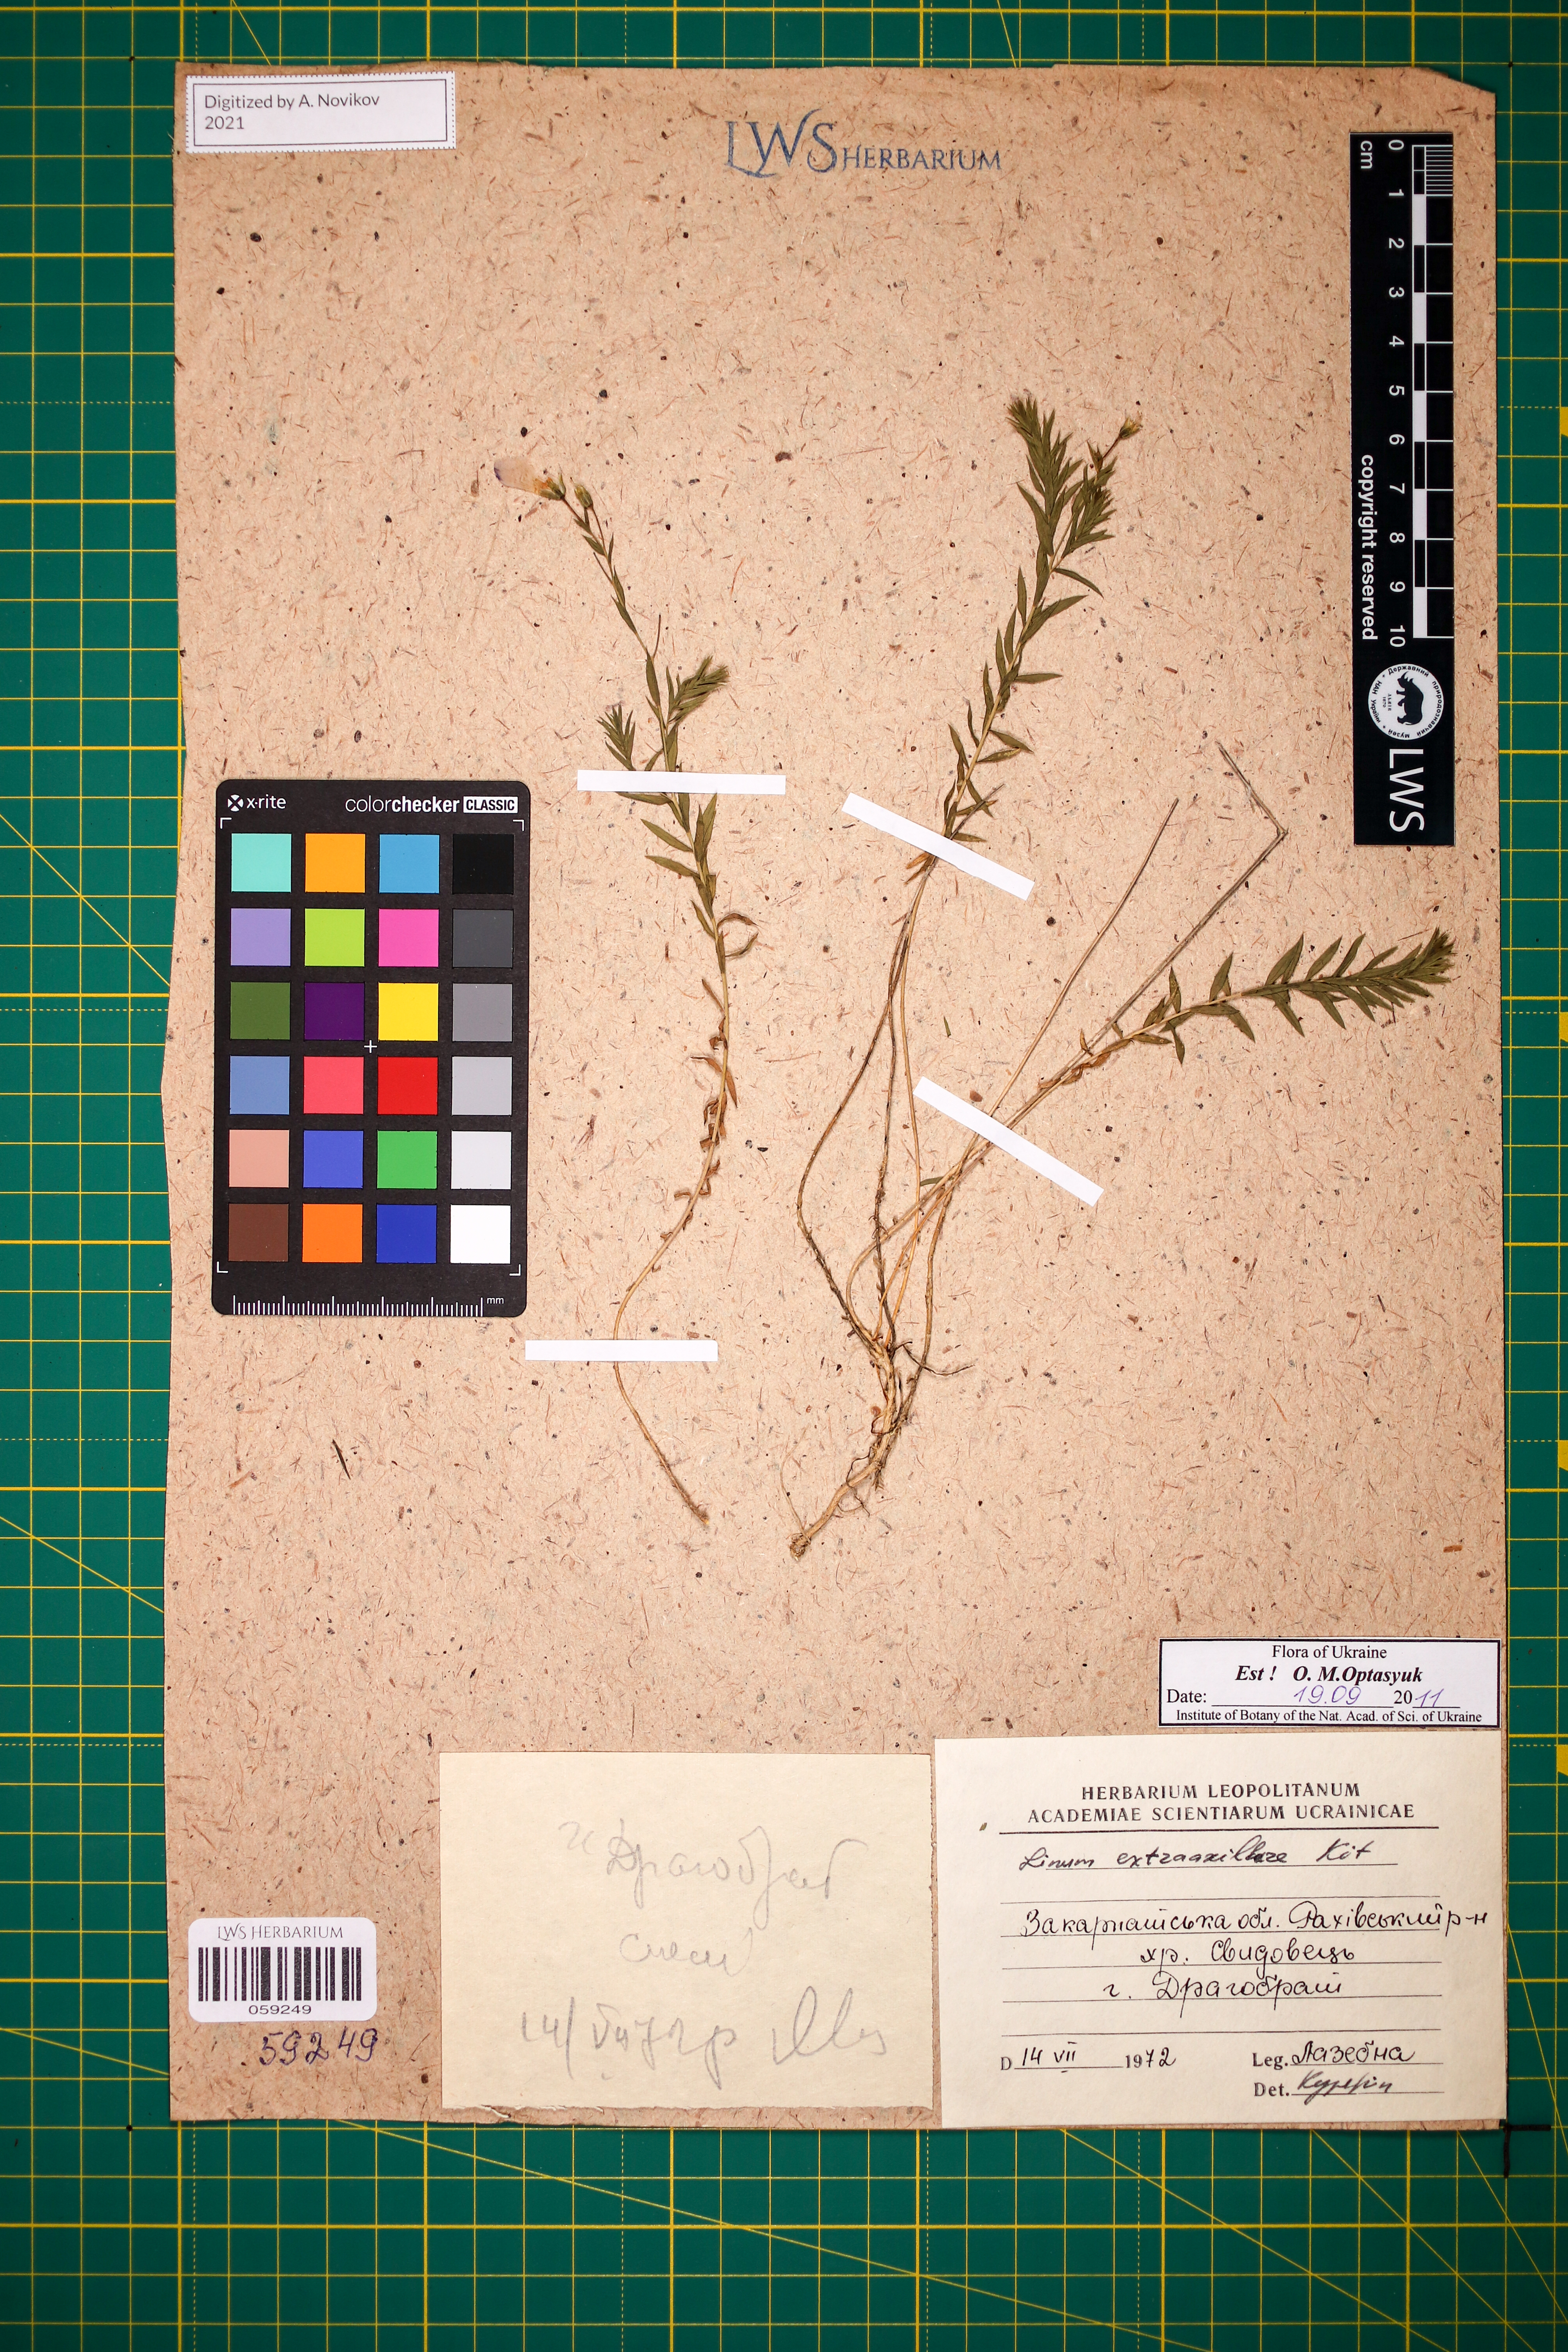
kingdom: Plantae
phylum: Tracheophyta
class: Magnoliopsida
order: Malpighiales
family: Linaceae
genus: Linum
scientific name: Linum perenne
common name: Blue flax
